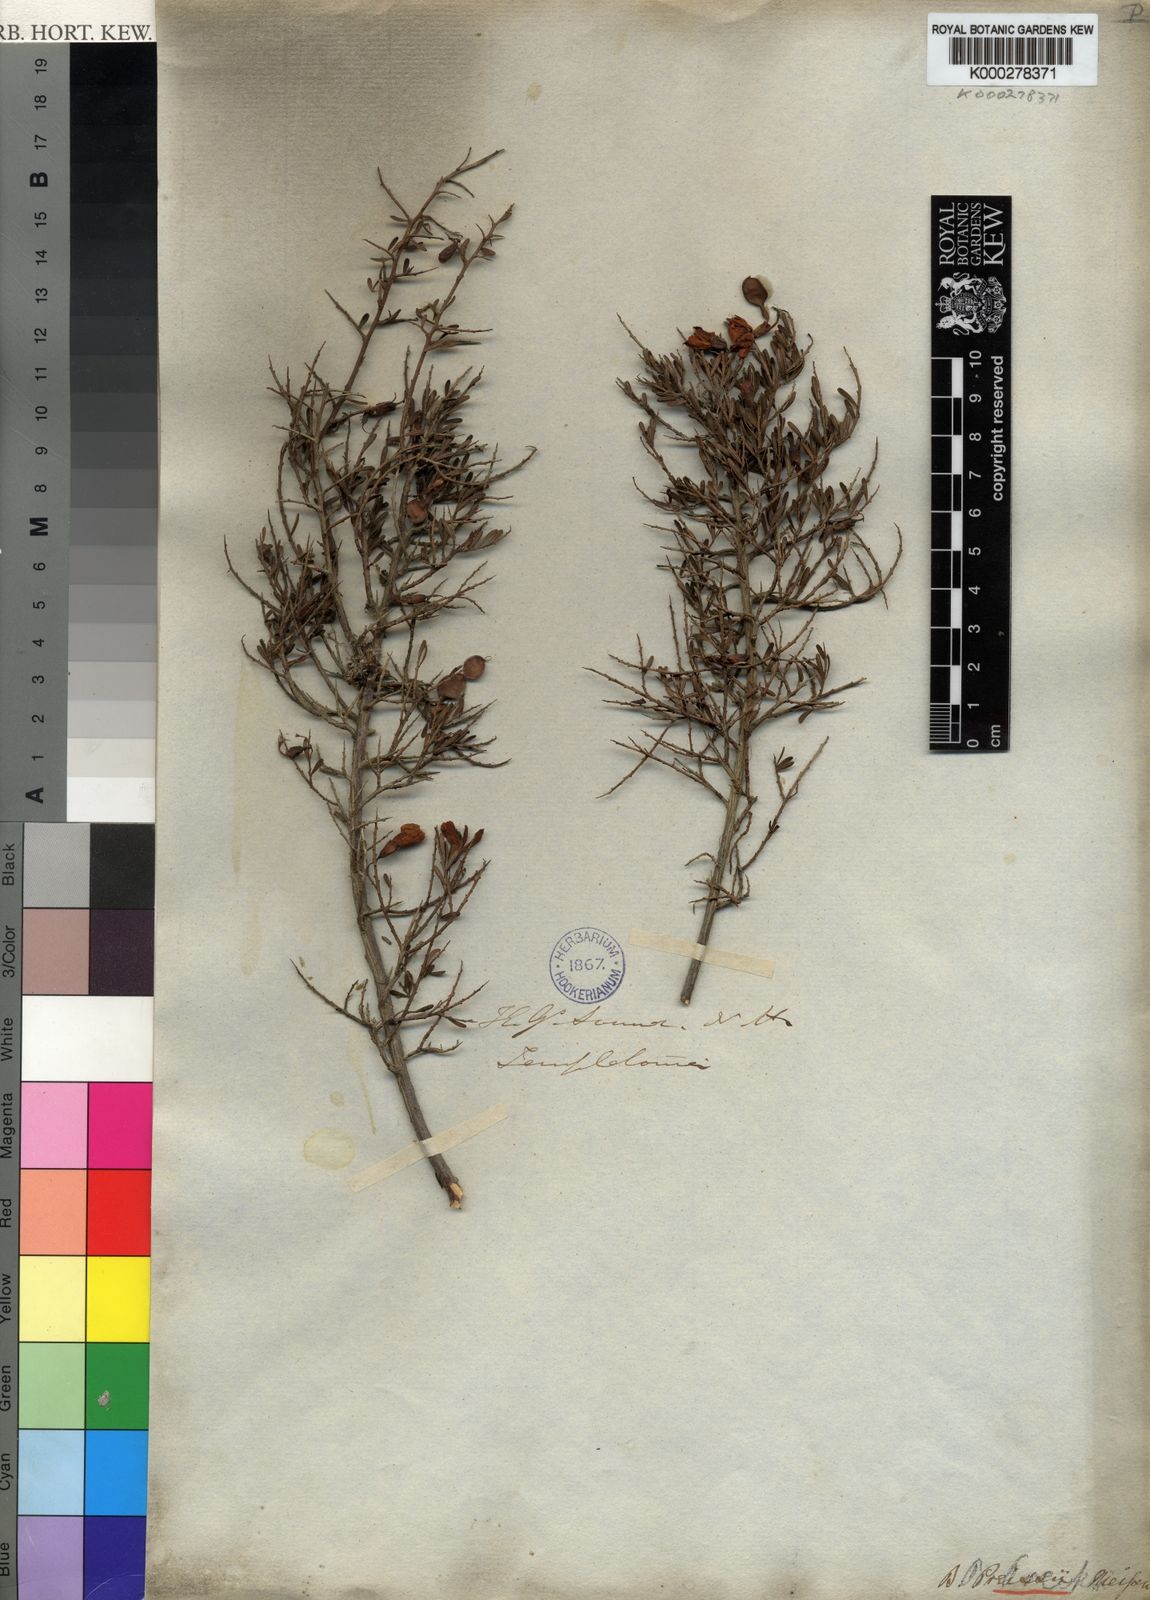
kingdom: Plantae
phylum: Tracheophyta
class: Magnoliopsida
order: Fabales
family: Fabaceae
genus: Bossiaea
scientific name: Bossiaea preissii
